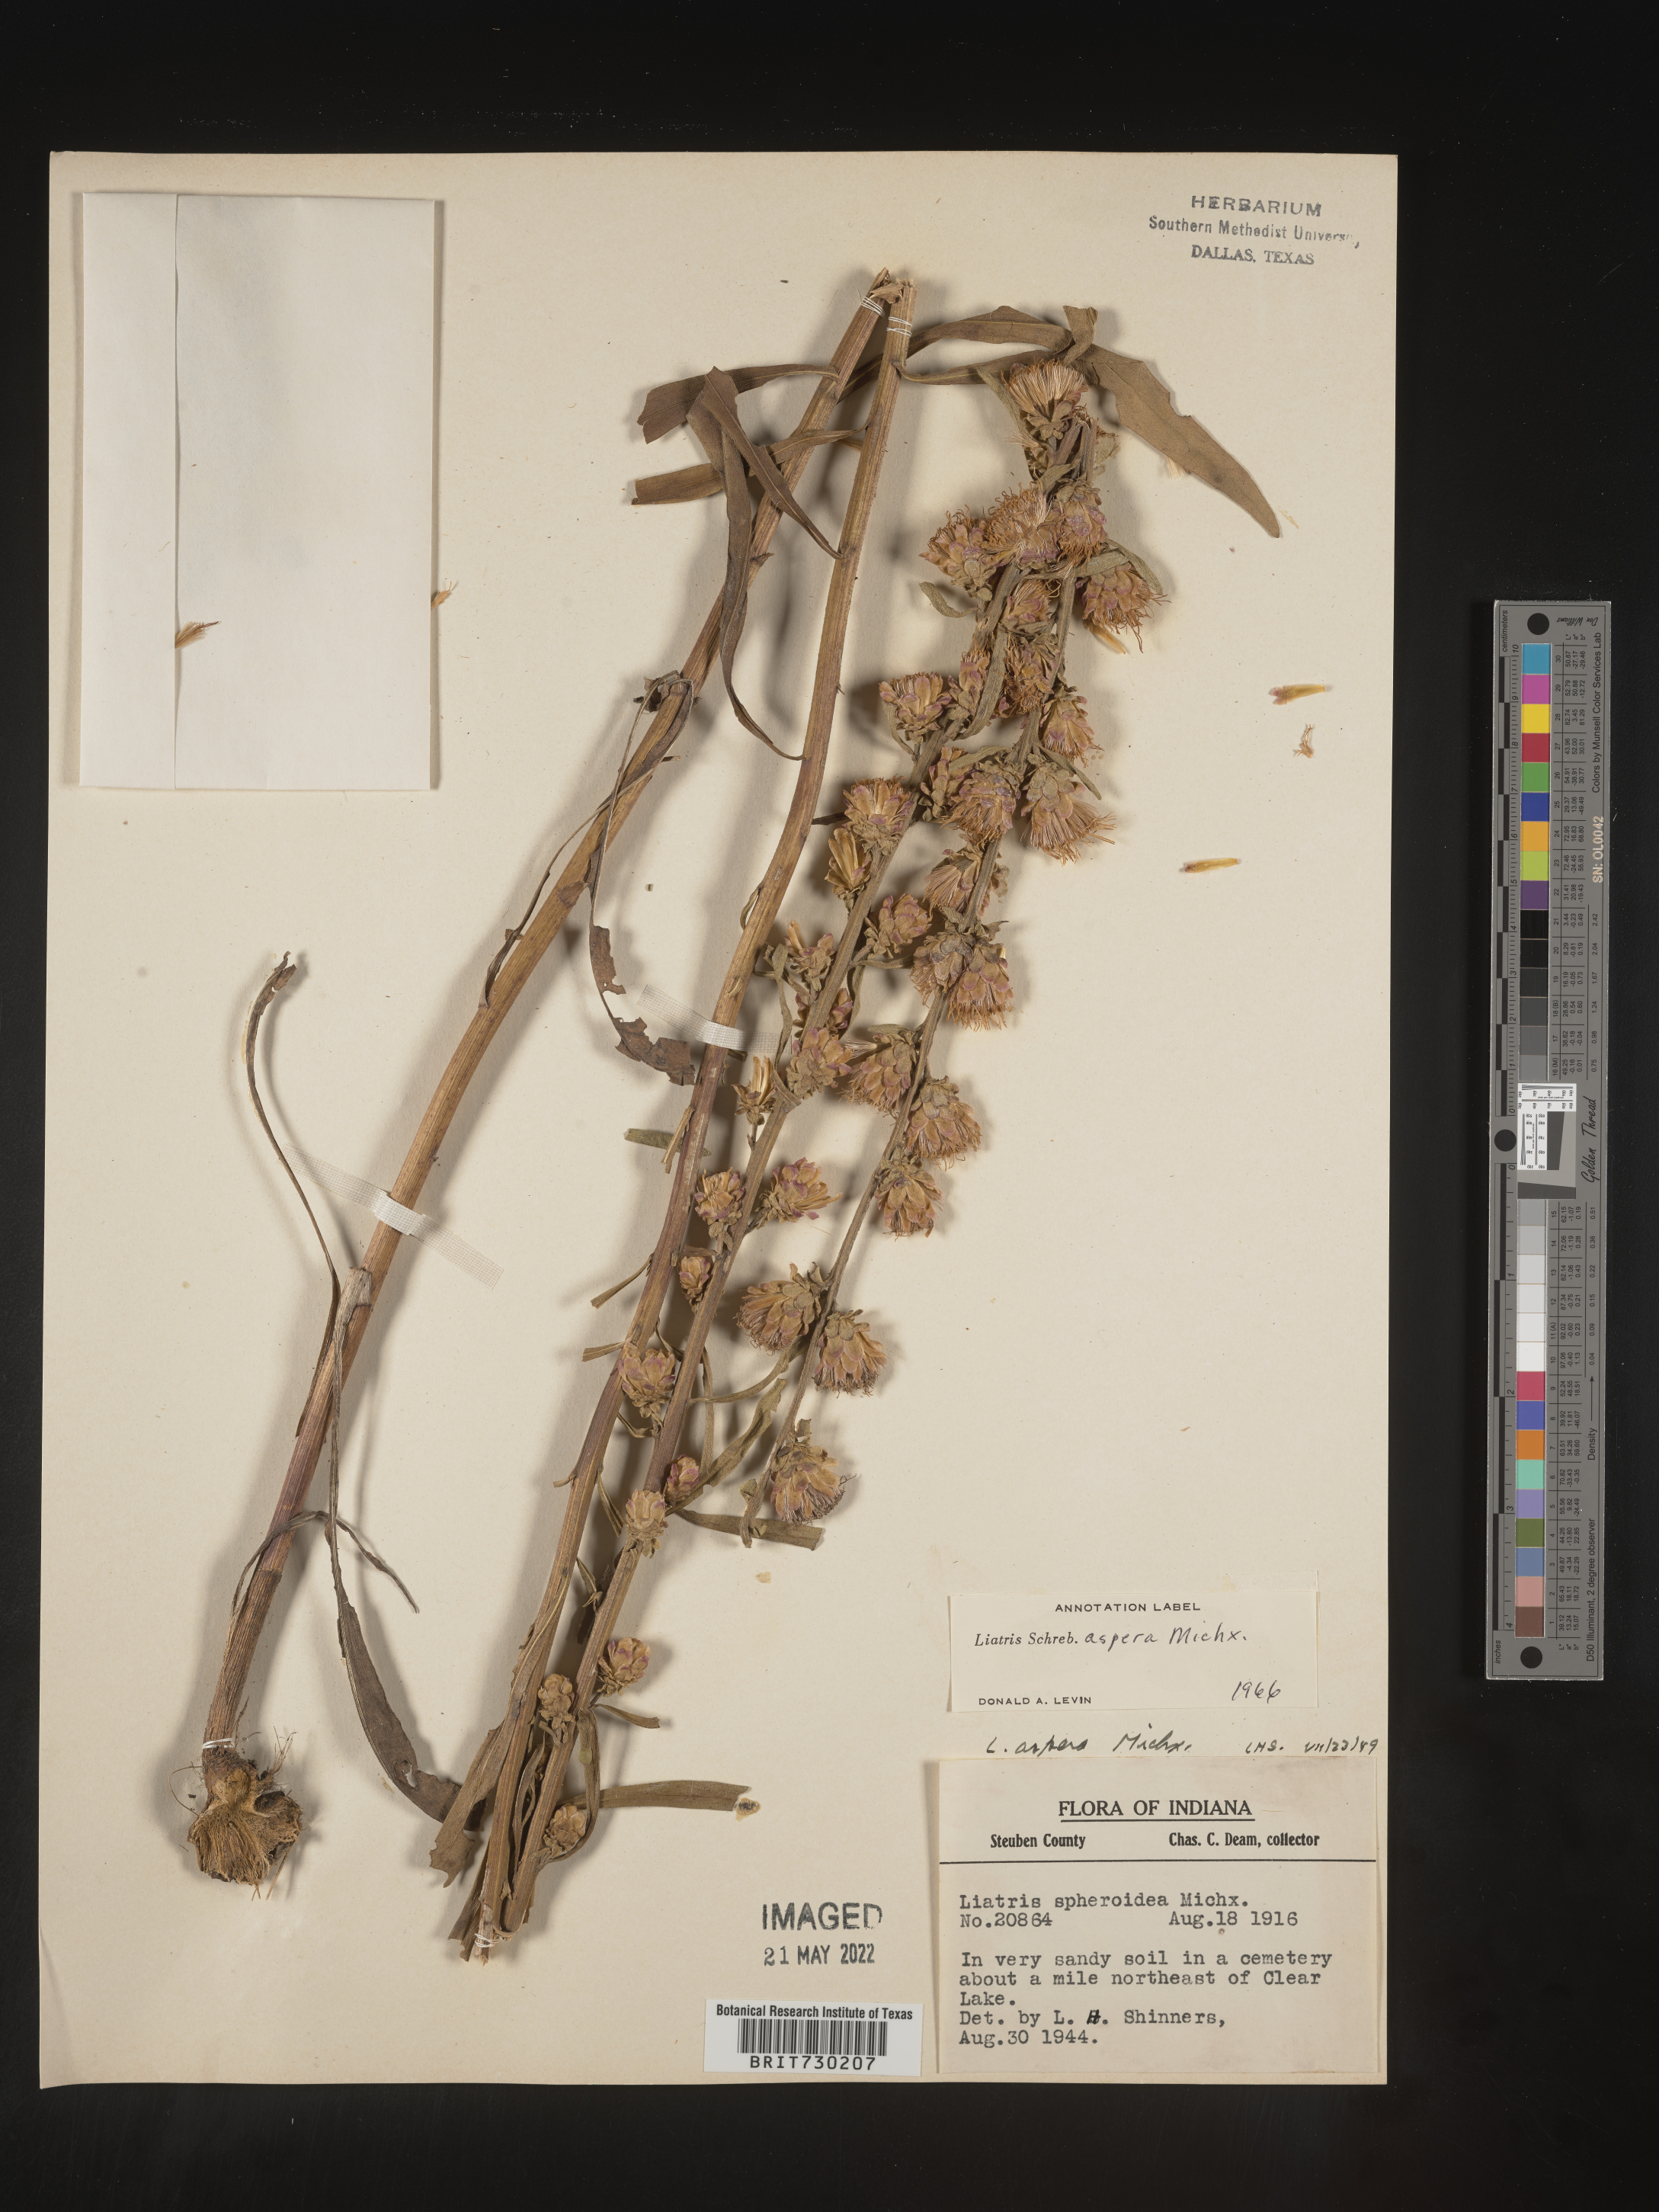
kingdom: Plantae
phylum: Tracheophyta
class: Magnoliopsida
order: Asterales
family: Asteraceae
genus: Liatris
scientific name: Liatris aspera
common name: Lacerate blazing-star
